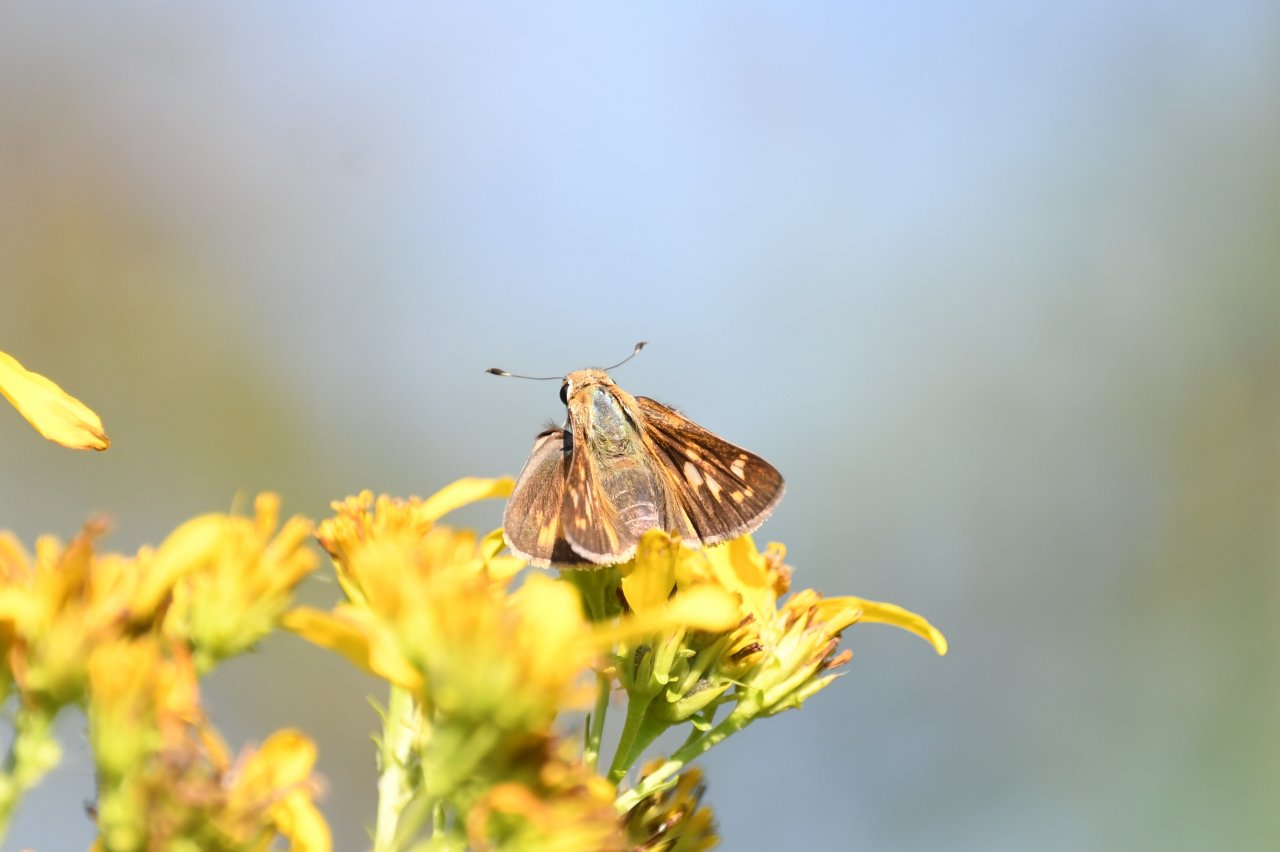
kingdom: Animalia
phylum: Arthropoda
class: Insecta
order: Lepidoptera
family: Hesperiidae
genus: Atalopedes
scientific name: Atalopedes campestris
